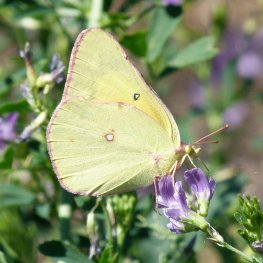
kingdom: Animalia
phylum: Arthropoda
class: Insecta
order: Lepidoptera
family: Pieridae
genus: Colias
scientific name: Colias interior
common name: Pink-edged Sulphur
